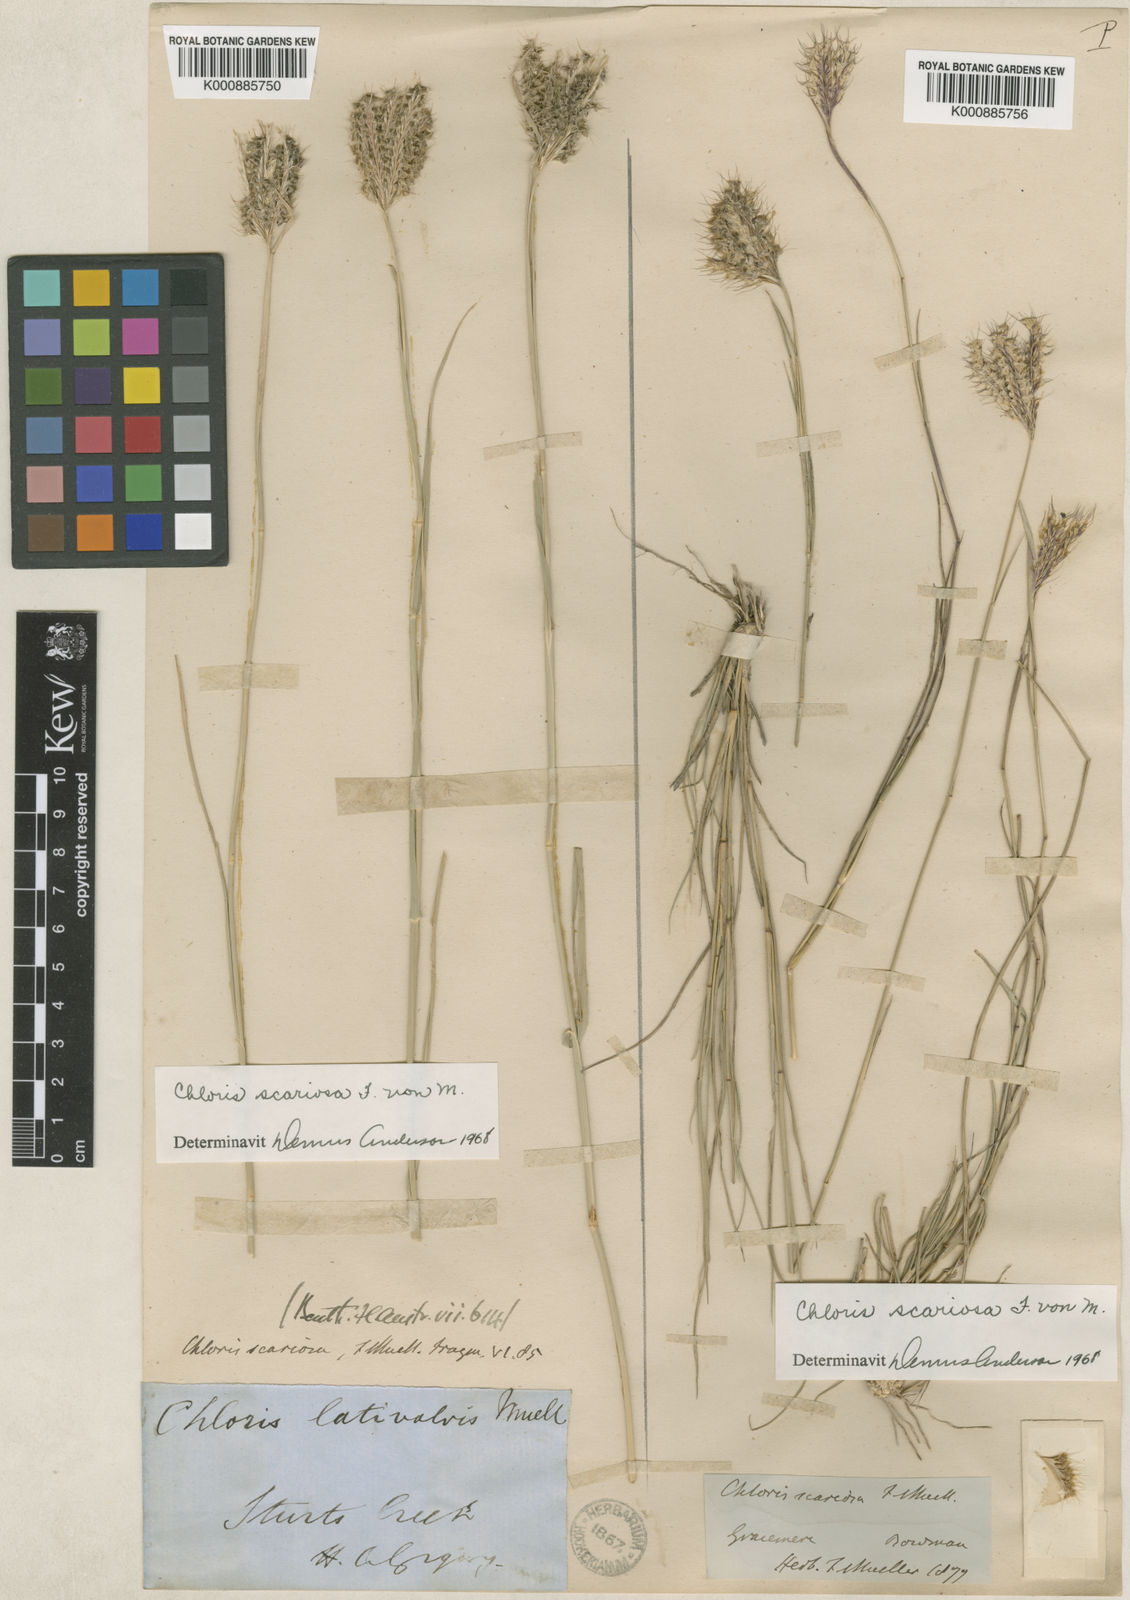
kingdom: Plantae
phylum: Tracheophyta
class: Liliopsida
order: Poales
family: Poaceae
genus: Oxychloris
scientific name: Oxychloris scariosa
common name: Winged windmill grass
